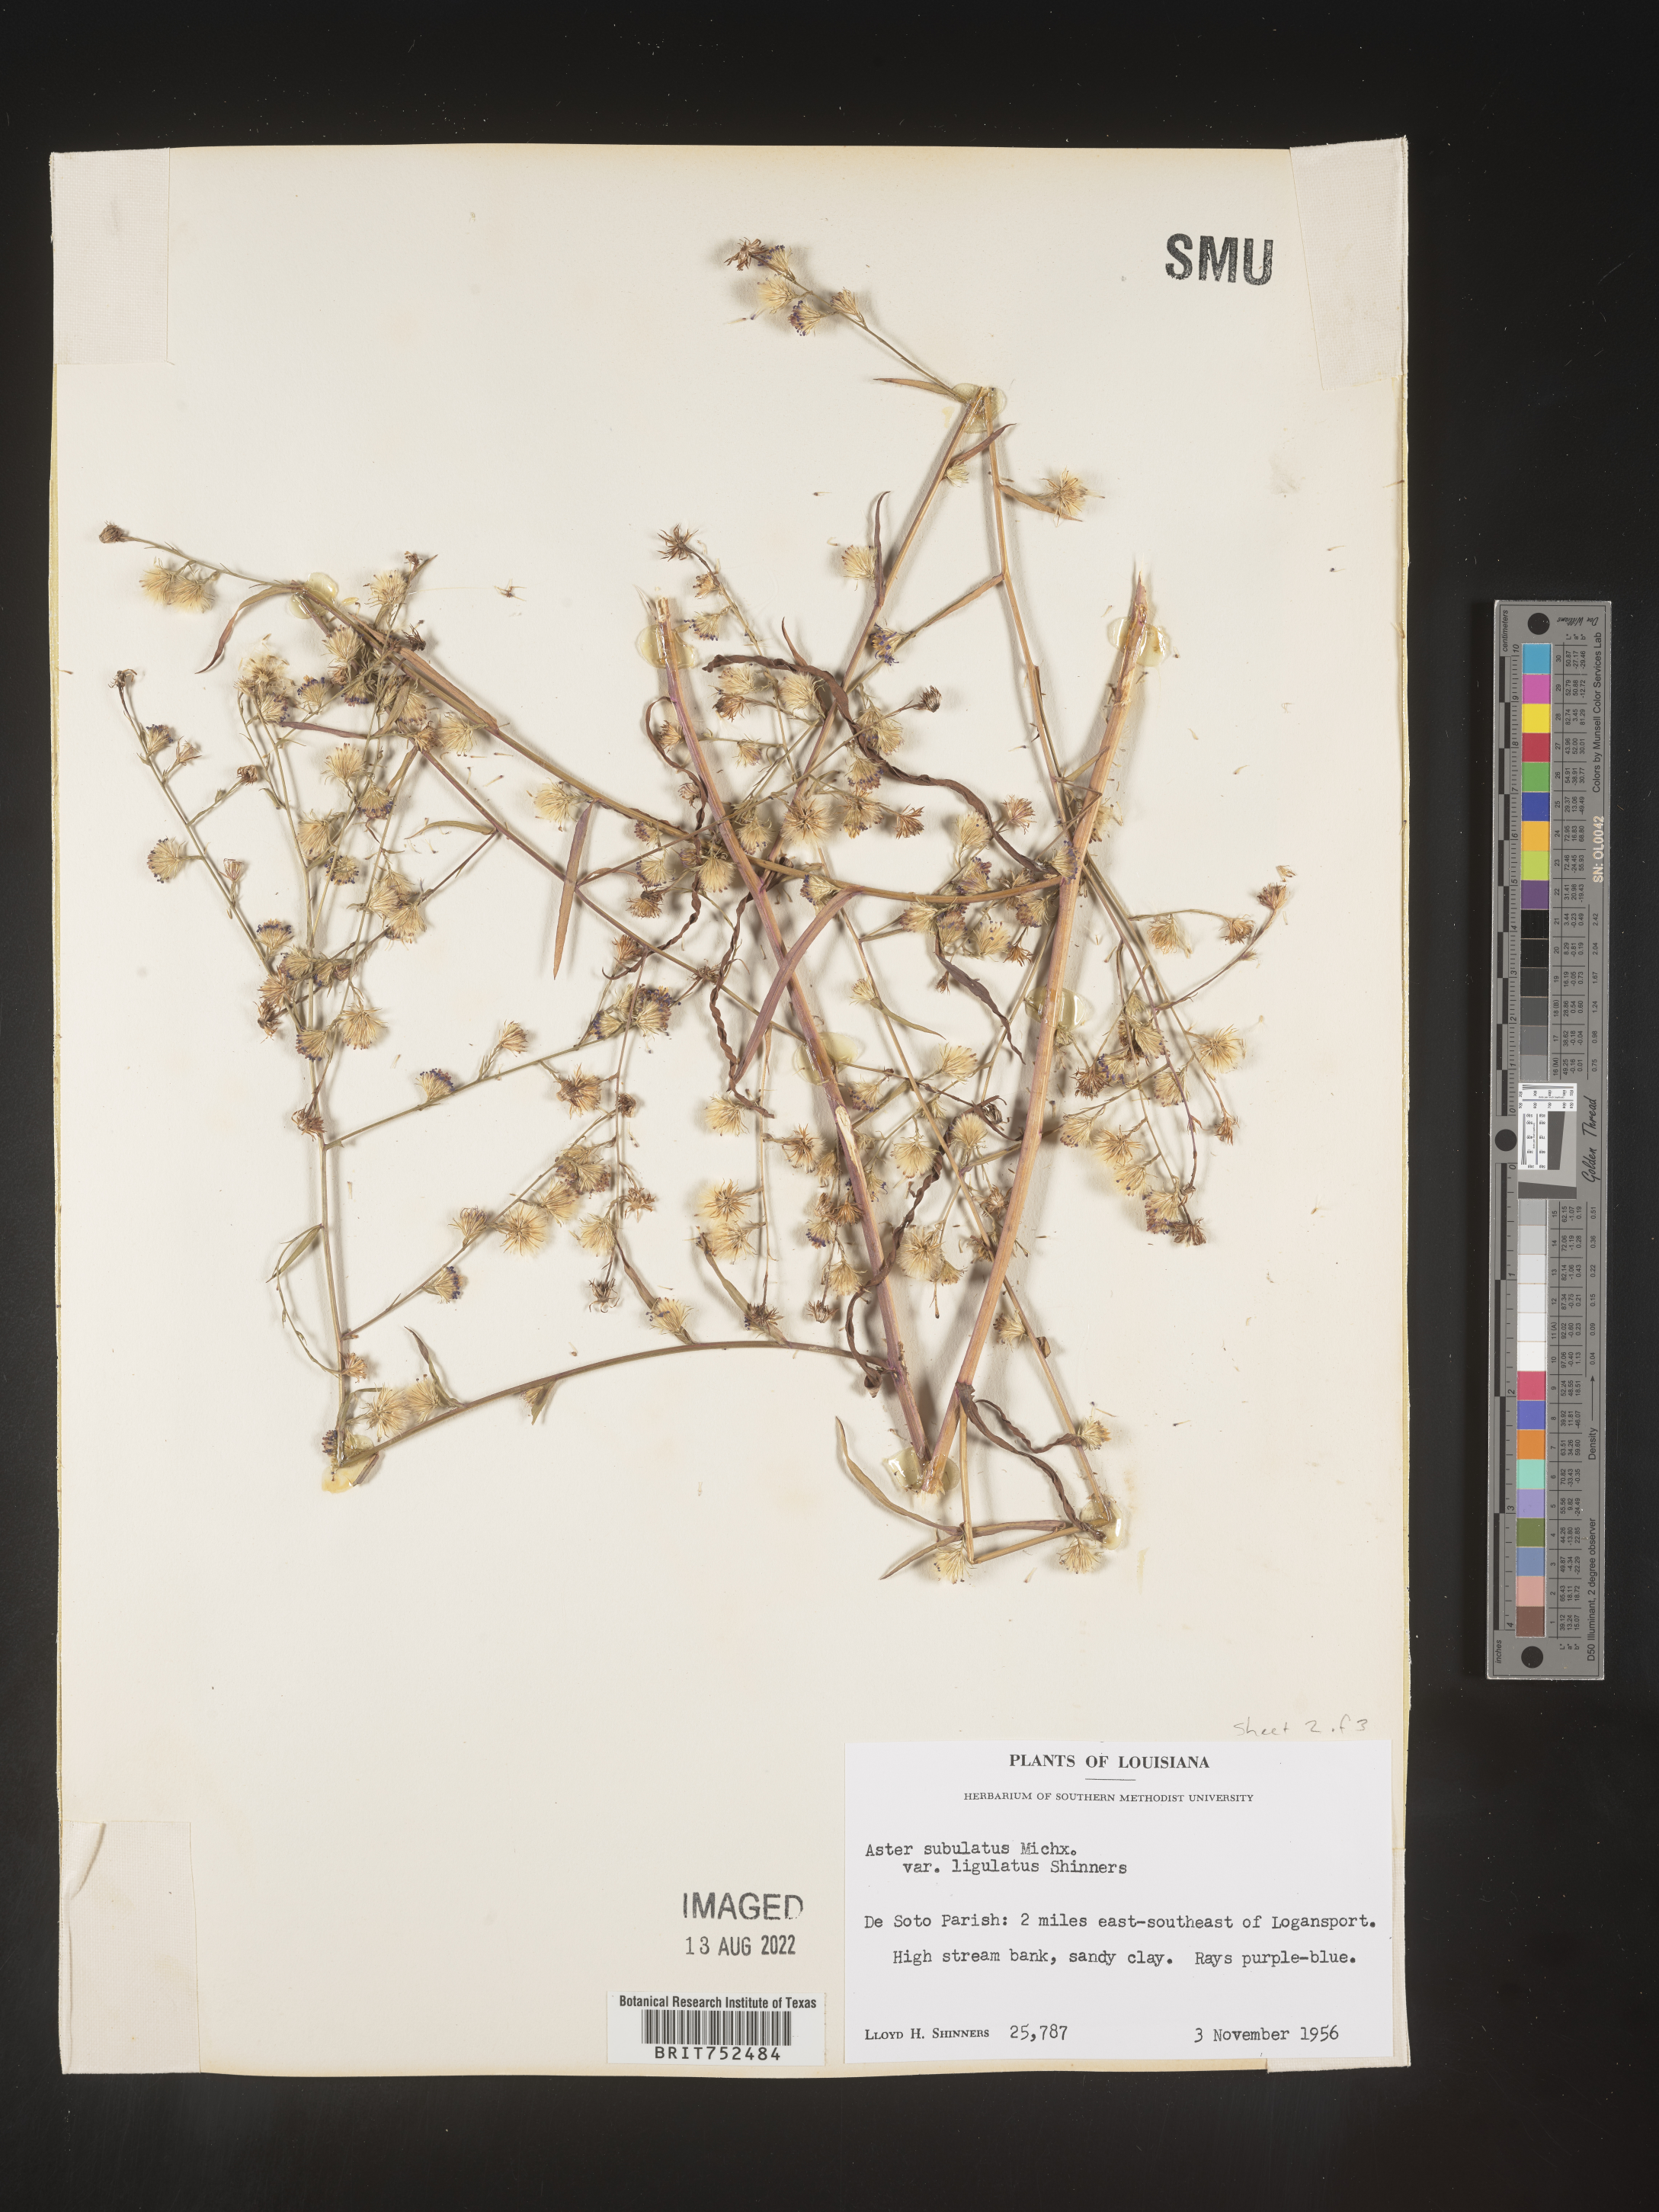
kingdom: Plantae
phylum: Tracheophyta
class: Magnoliopsida
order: Asterales
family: Asteraceae
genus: Symphyotrichum
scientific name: Symphyotrichum divaricatum
